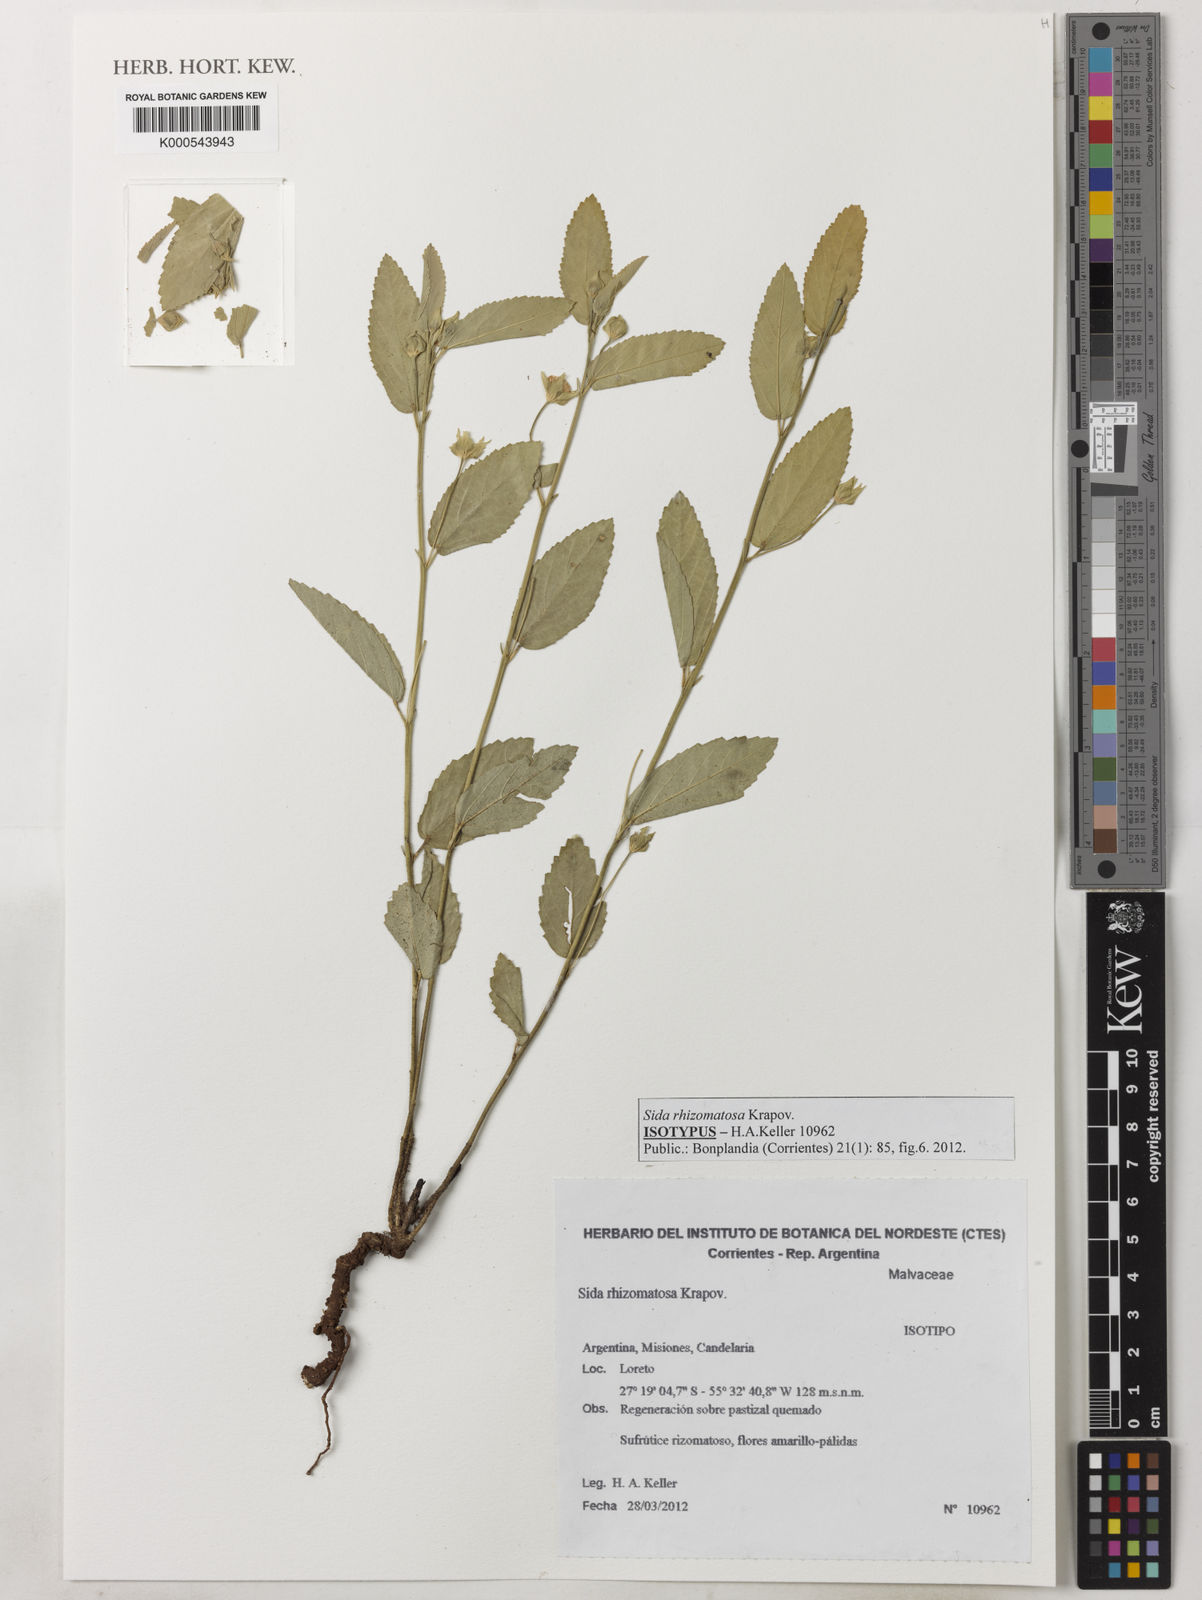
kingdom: Plantae
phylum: Tracheophyta
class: Magnoliopsida
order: Malvales
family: Malvaceae
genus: Sida
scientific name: Sida rhizomatosa
